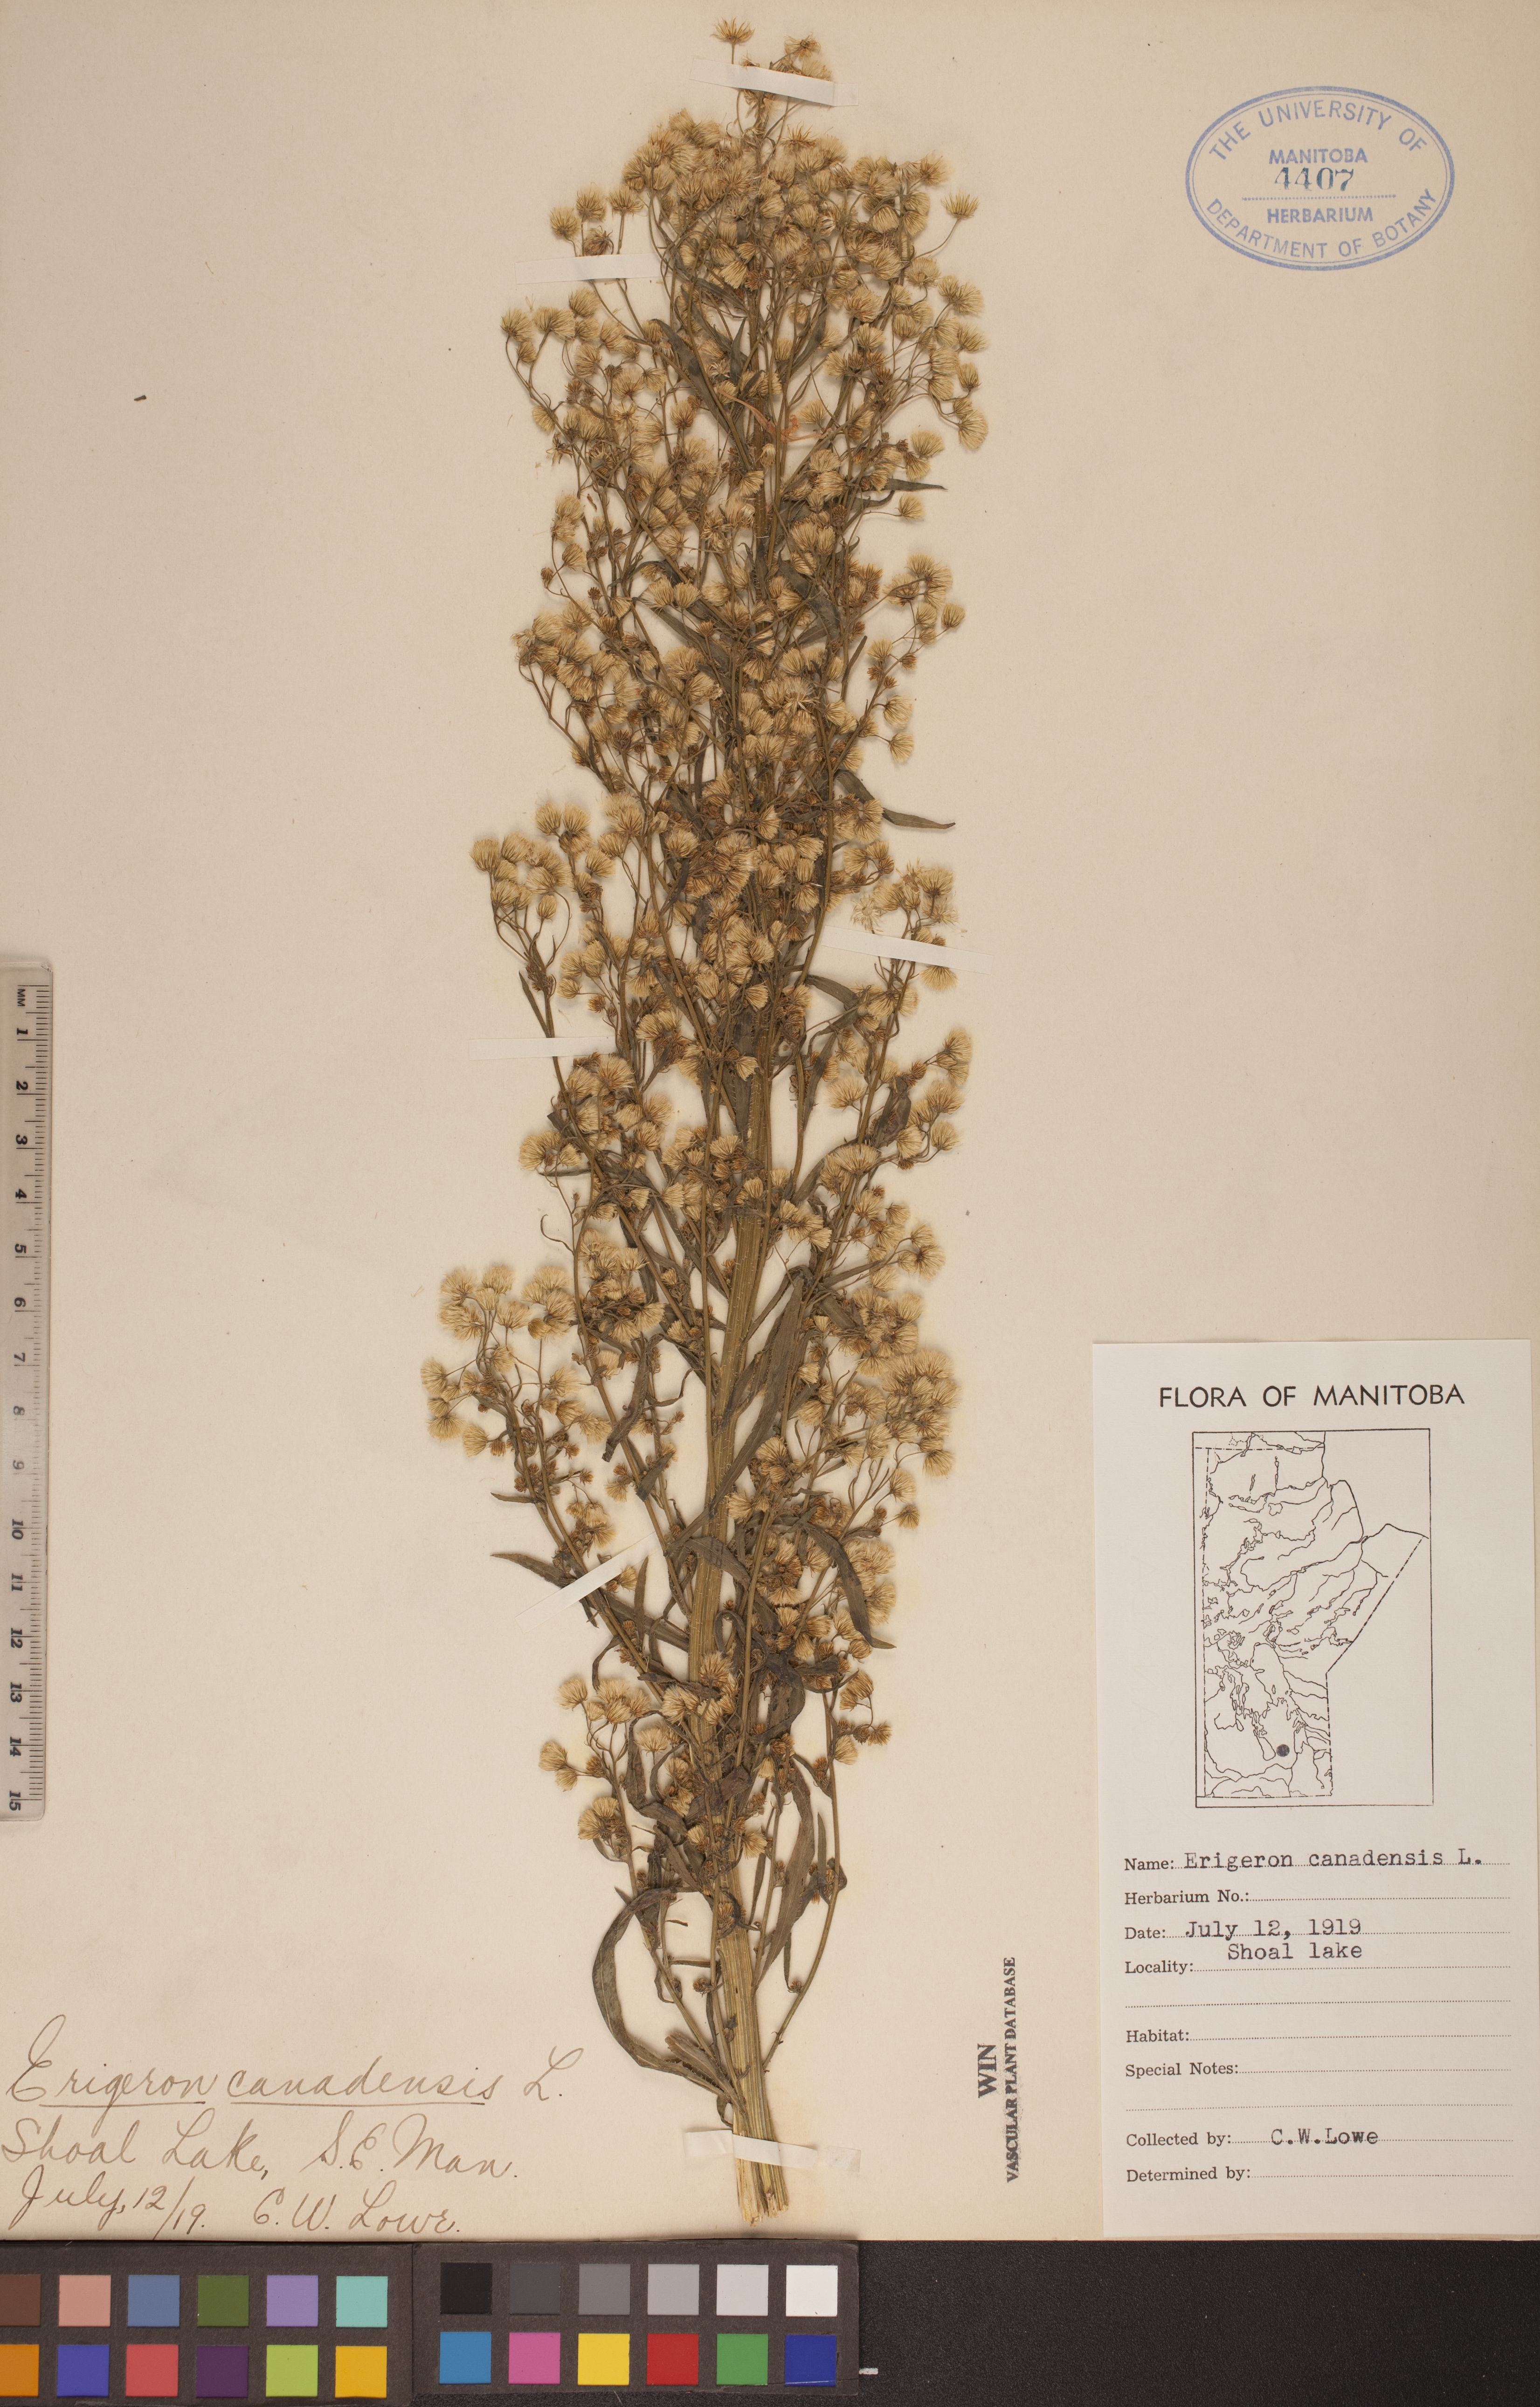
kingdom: Plantae
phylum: Tracheophyta
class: Magnoliopsida
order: Asterales
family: Asteraceae
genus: Erigeron
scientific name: Erigeron canadensis
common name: Canadian fleabane
